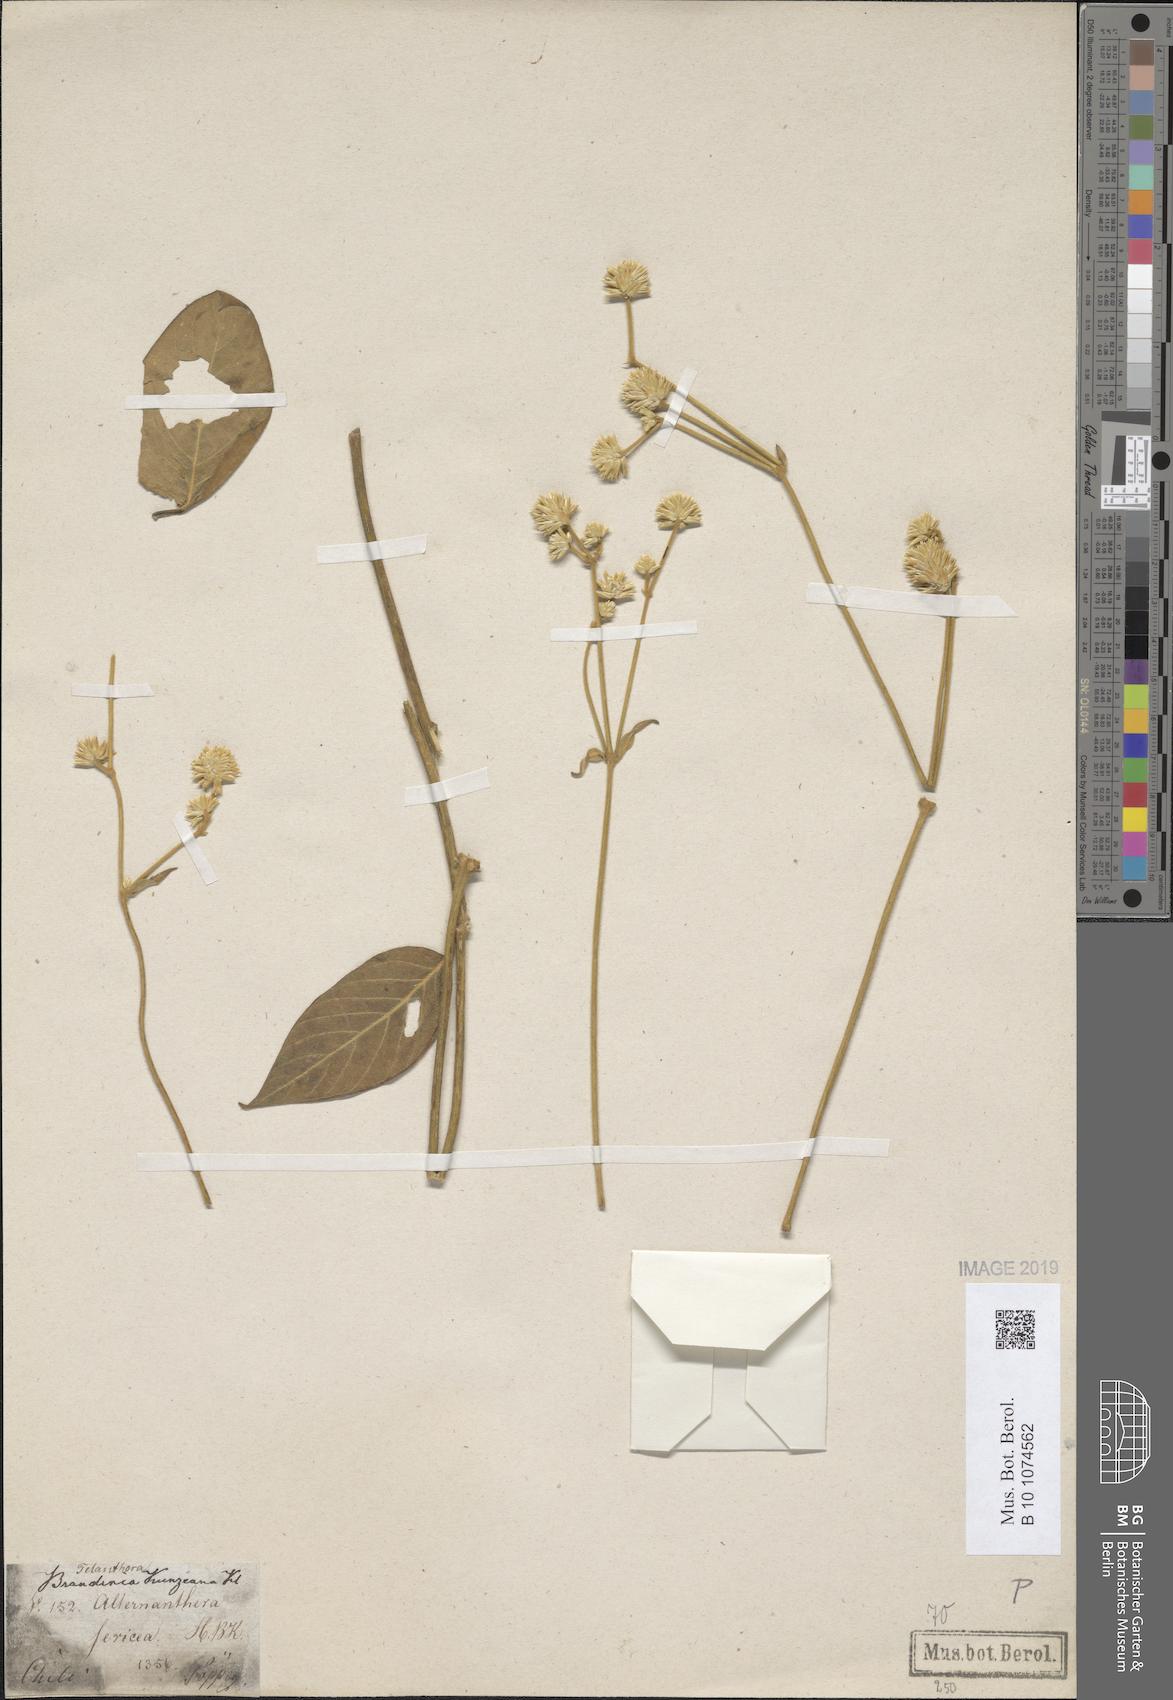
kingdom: Plantae
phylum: Tracheophyta
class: Magnoliopsida
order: Caryophyllales
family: Amaranthaceae
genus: Alternanthera
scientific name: Alternanthera sericea
